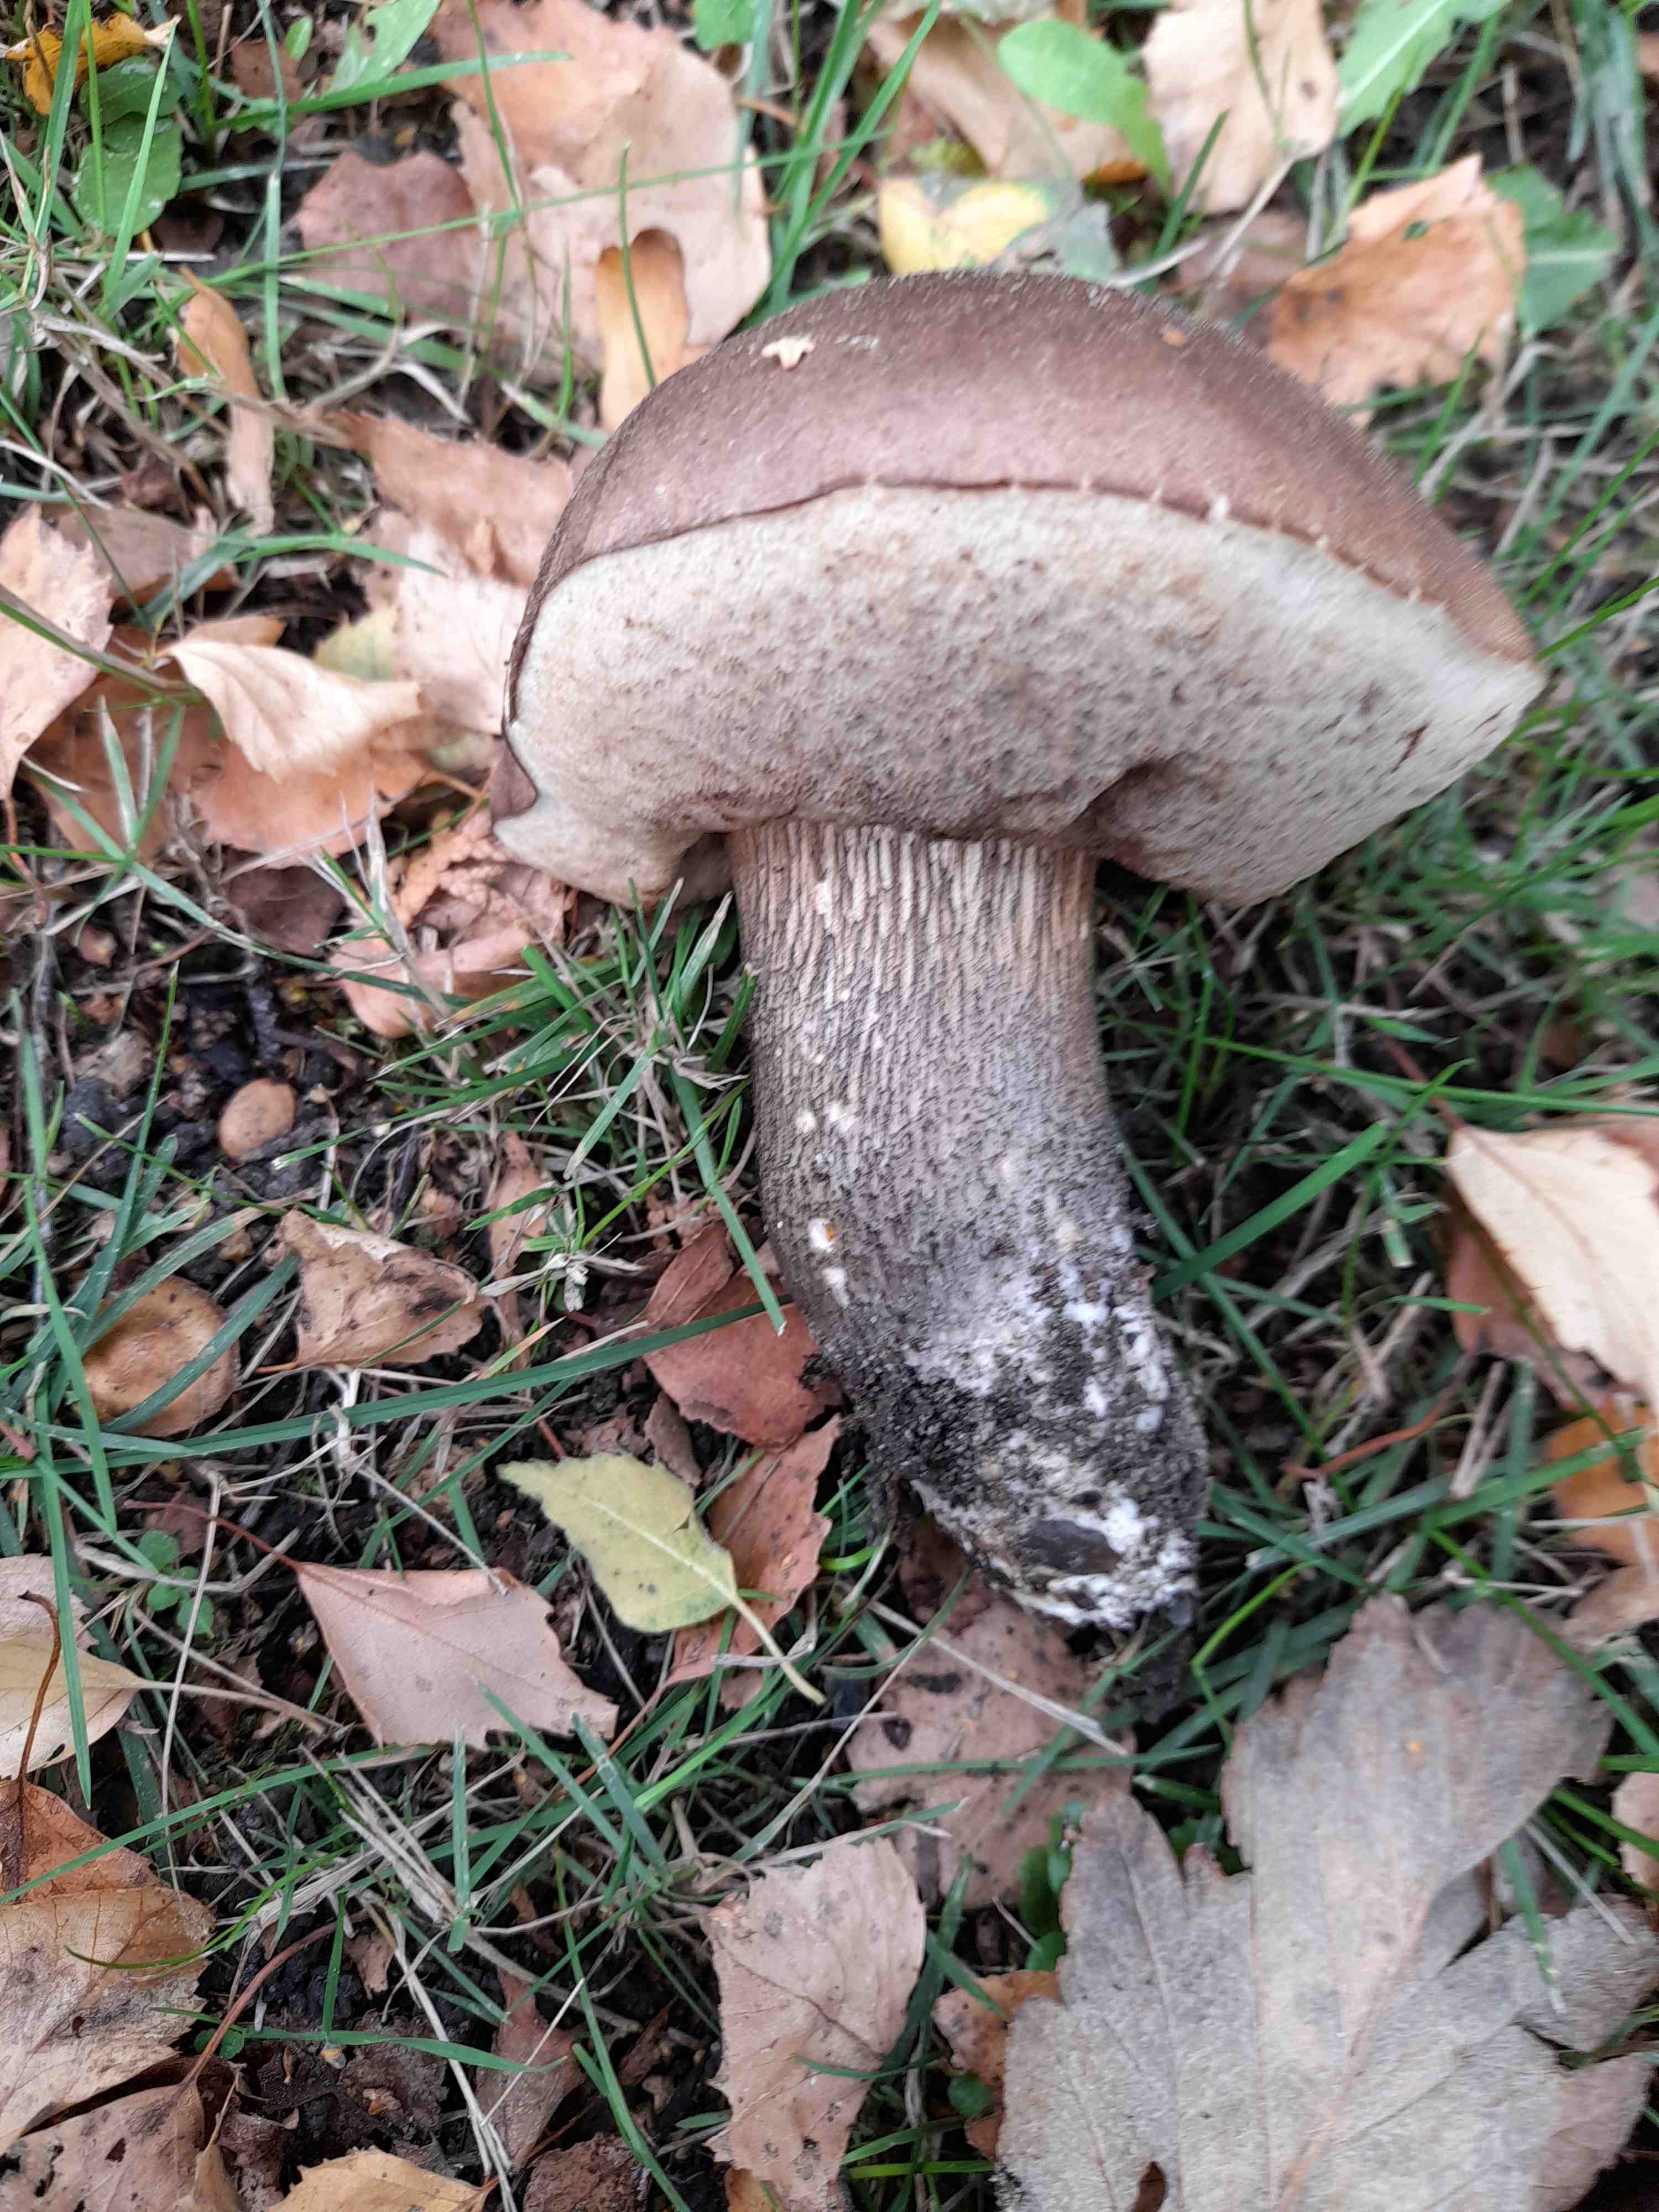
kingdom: Fungi
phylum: Basidiomycota
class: Agaricomycetes
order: Boletales
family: Boletaceae
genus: Leccinum
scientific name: Leccinum scabrum
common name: brun skælrørhat
